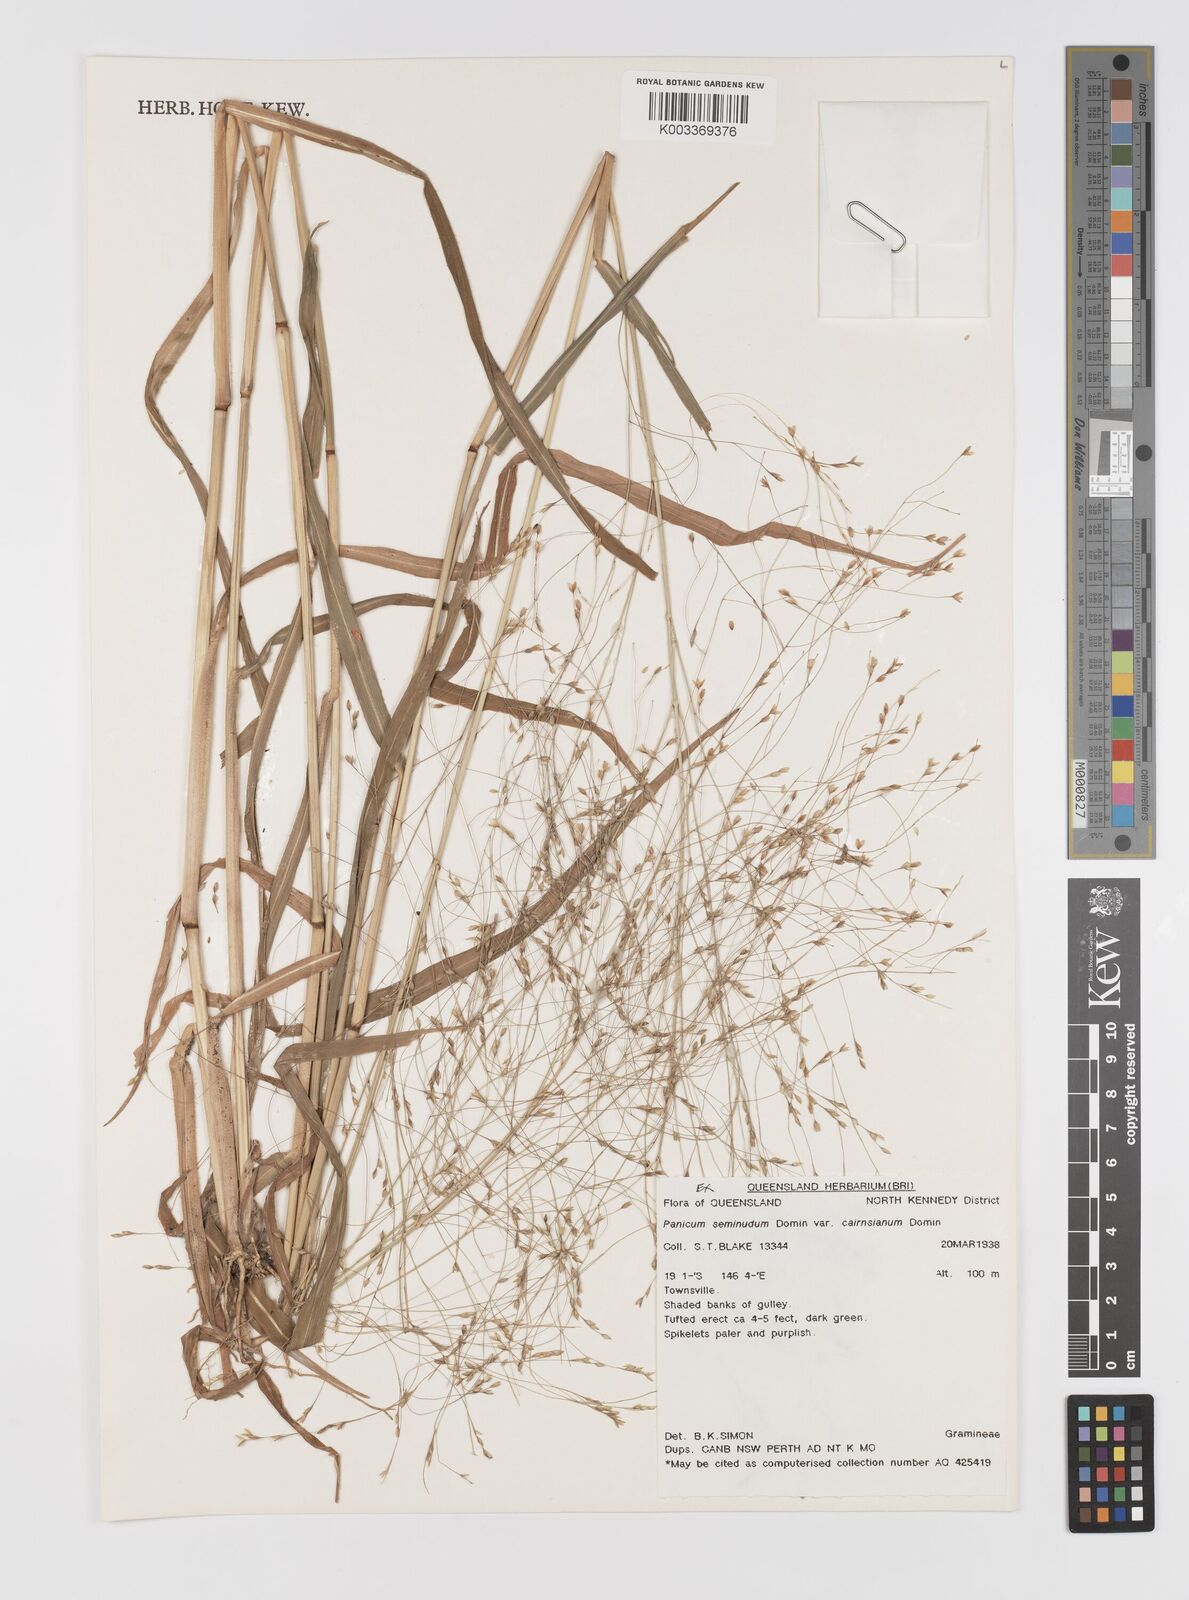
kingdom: Plantae
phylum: Tracheophyta
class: Liliopsida
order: Poales
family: Poaceae
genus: Panicum
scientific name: Panicum seminudum
